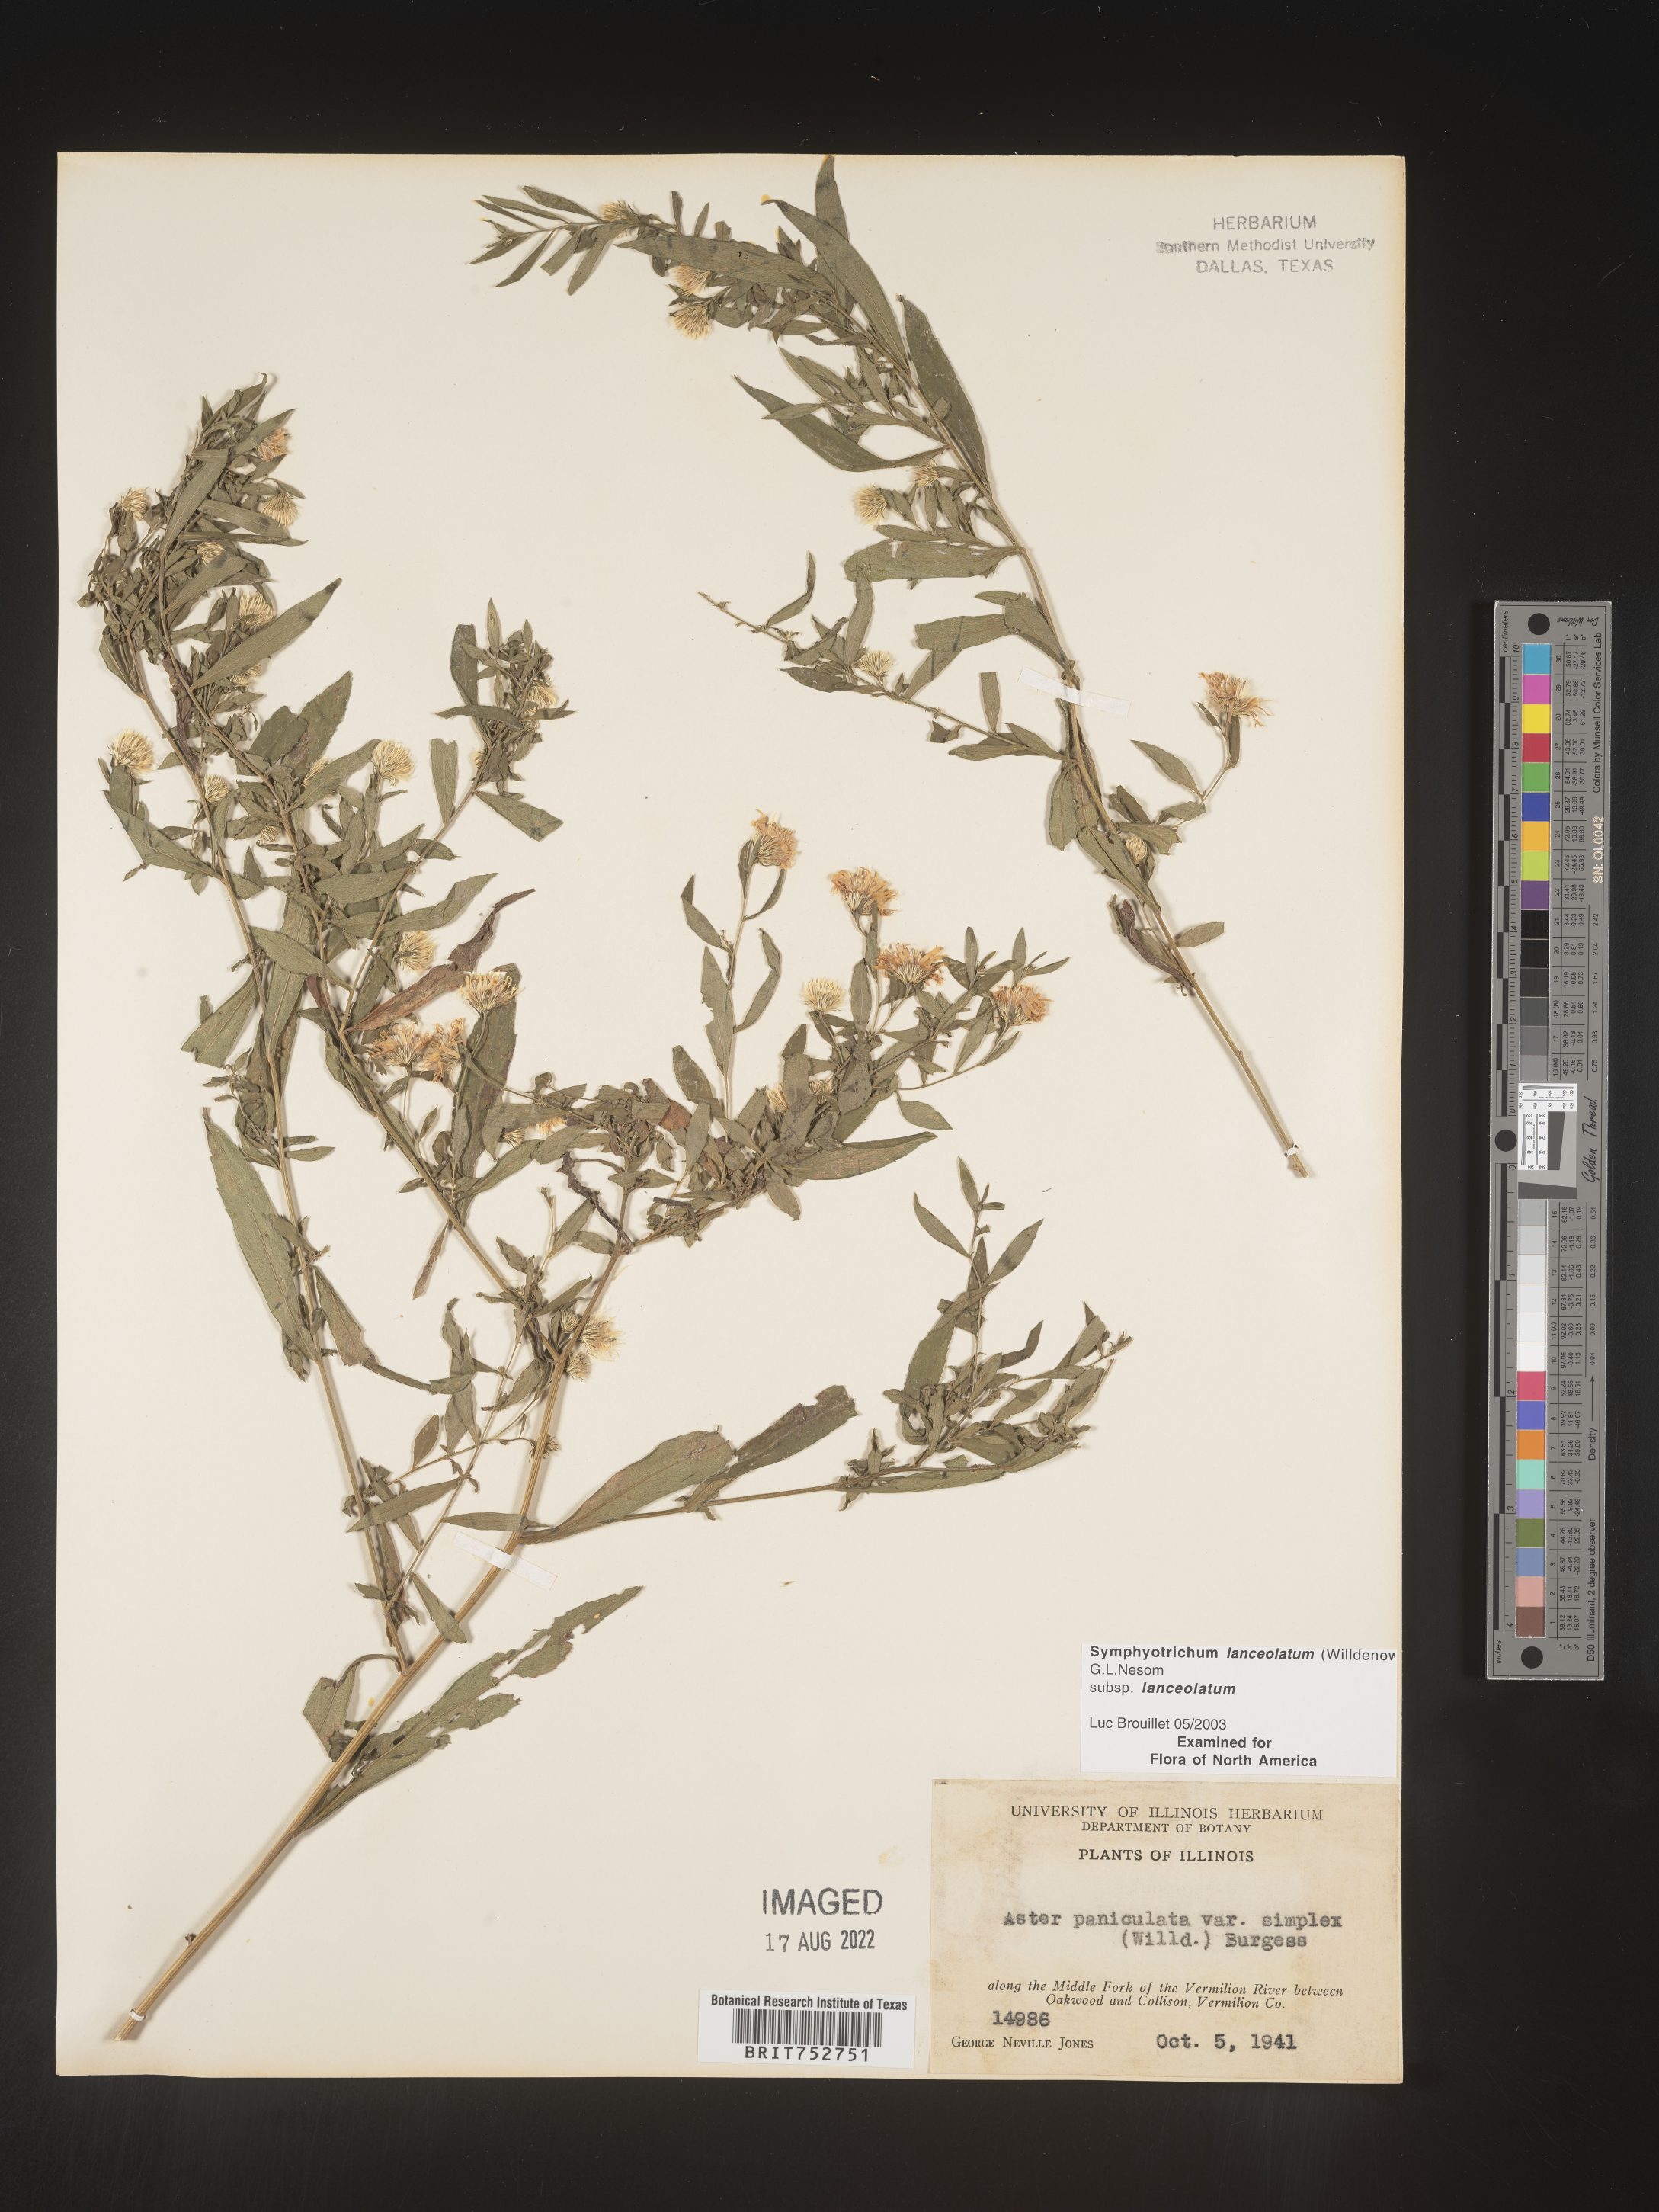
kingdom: Plantae
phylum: Tracheophyta
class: Magnoliopsida
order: Asterales
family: Asteraceae
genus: Symphyotrichum
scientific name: Symphyotrichum lanceolatum
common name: Panicled aster
